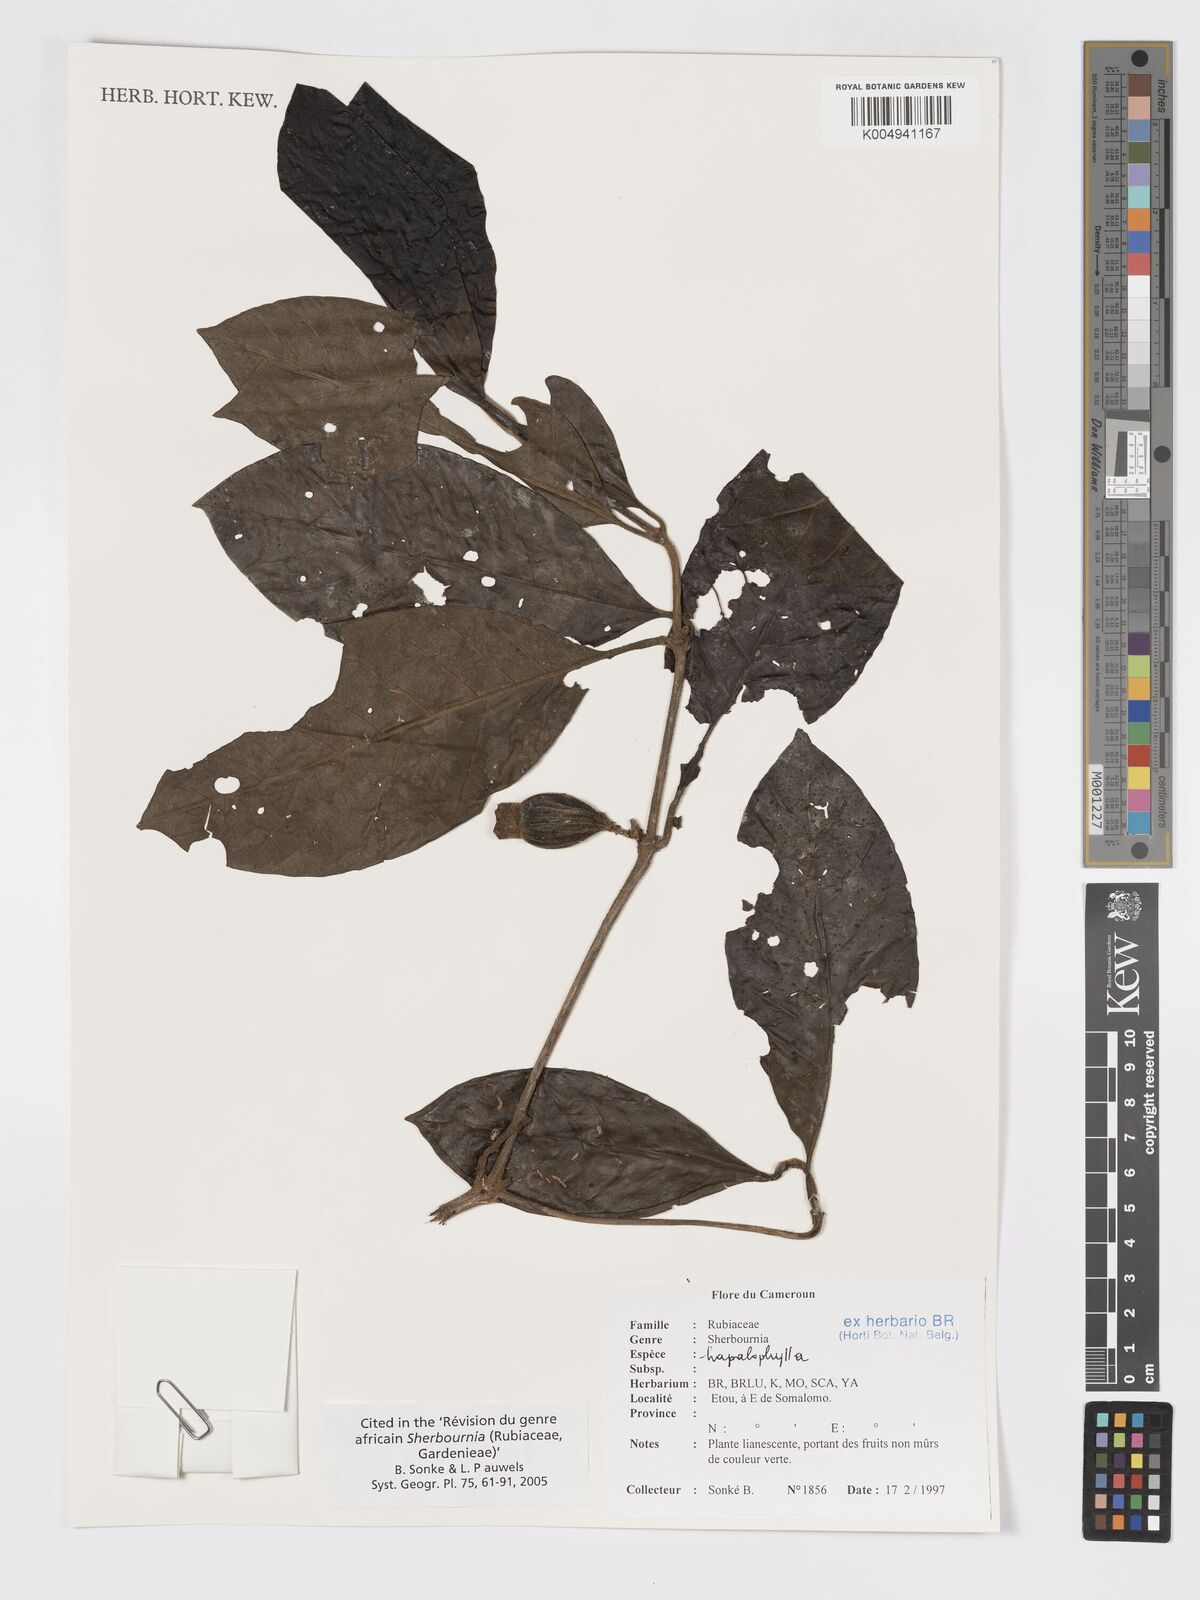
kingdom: Plantae
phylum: Tracheophyta
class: Magnoliopsida
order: Gentianales
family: Rubiaceae
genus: Sherbournia
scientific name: Sherbournia hapalophylla
